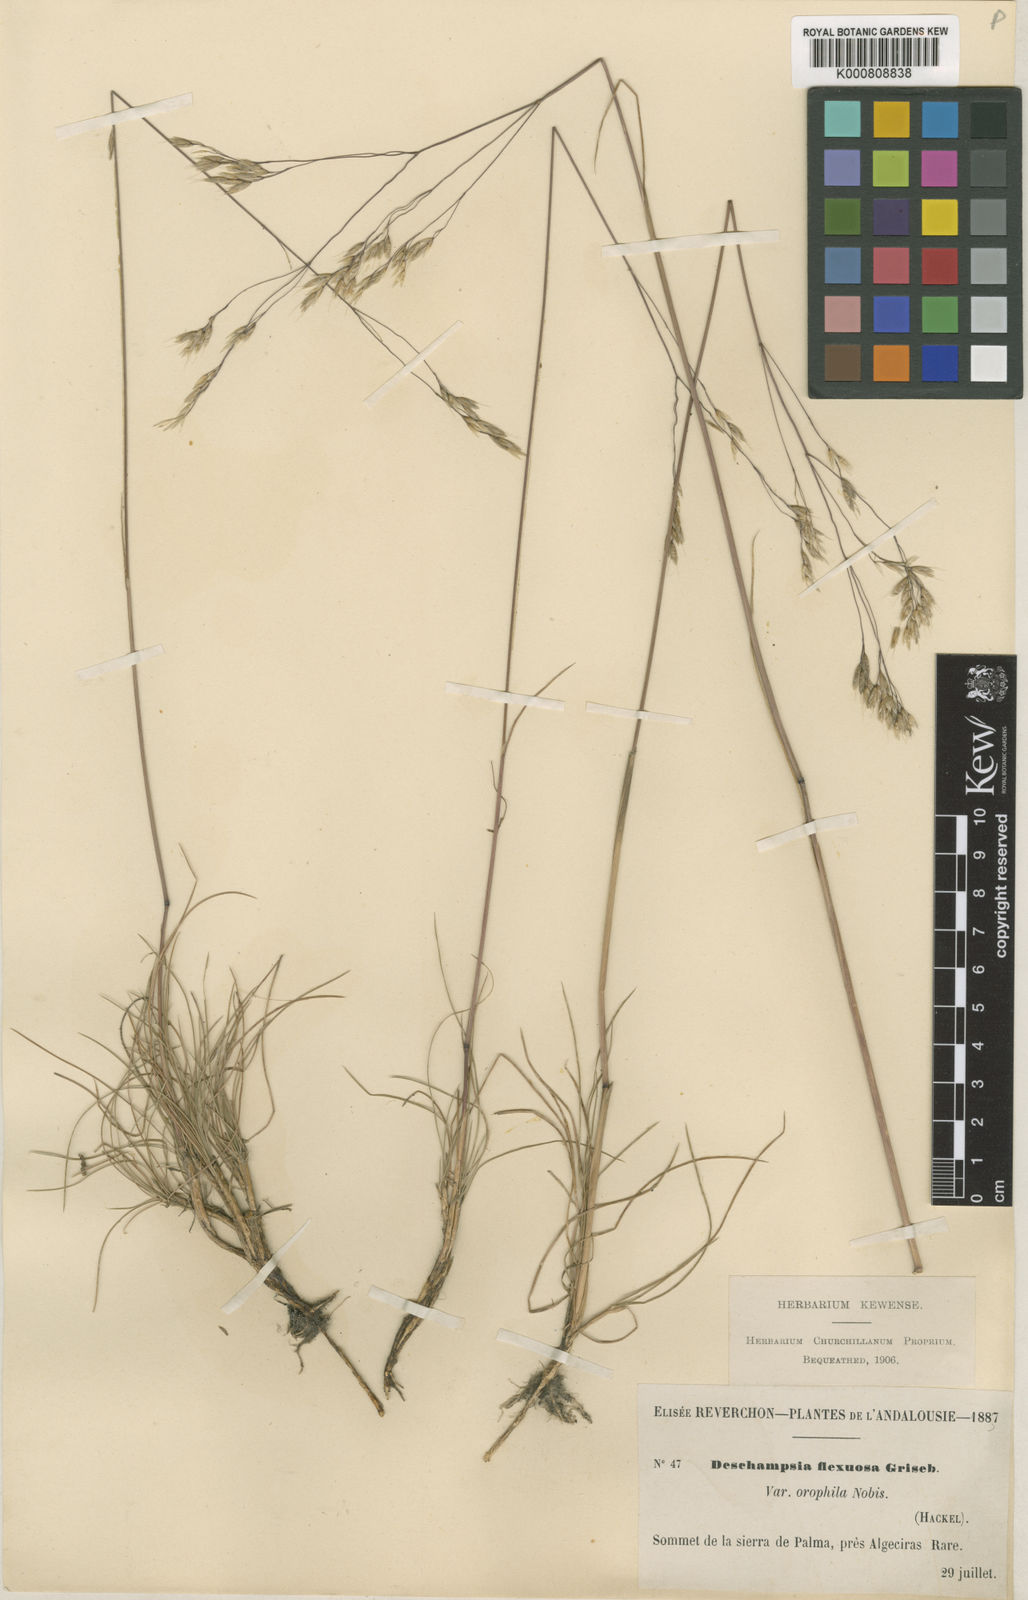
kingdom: Plantae
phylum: Tracheophyta
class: Liliopsida
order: Poales
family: Poaceae
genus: Avenella
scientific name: Avenella flexuosa
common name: Wavy hairgrass
